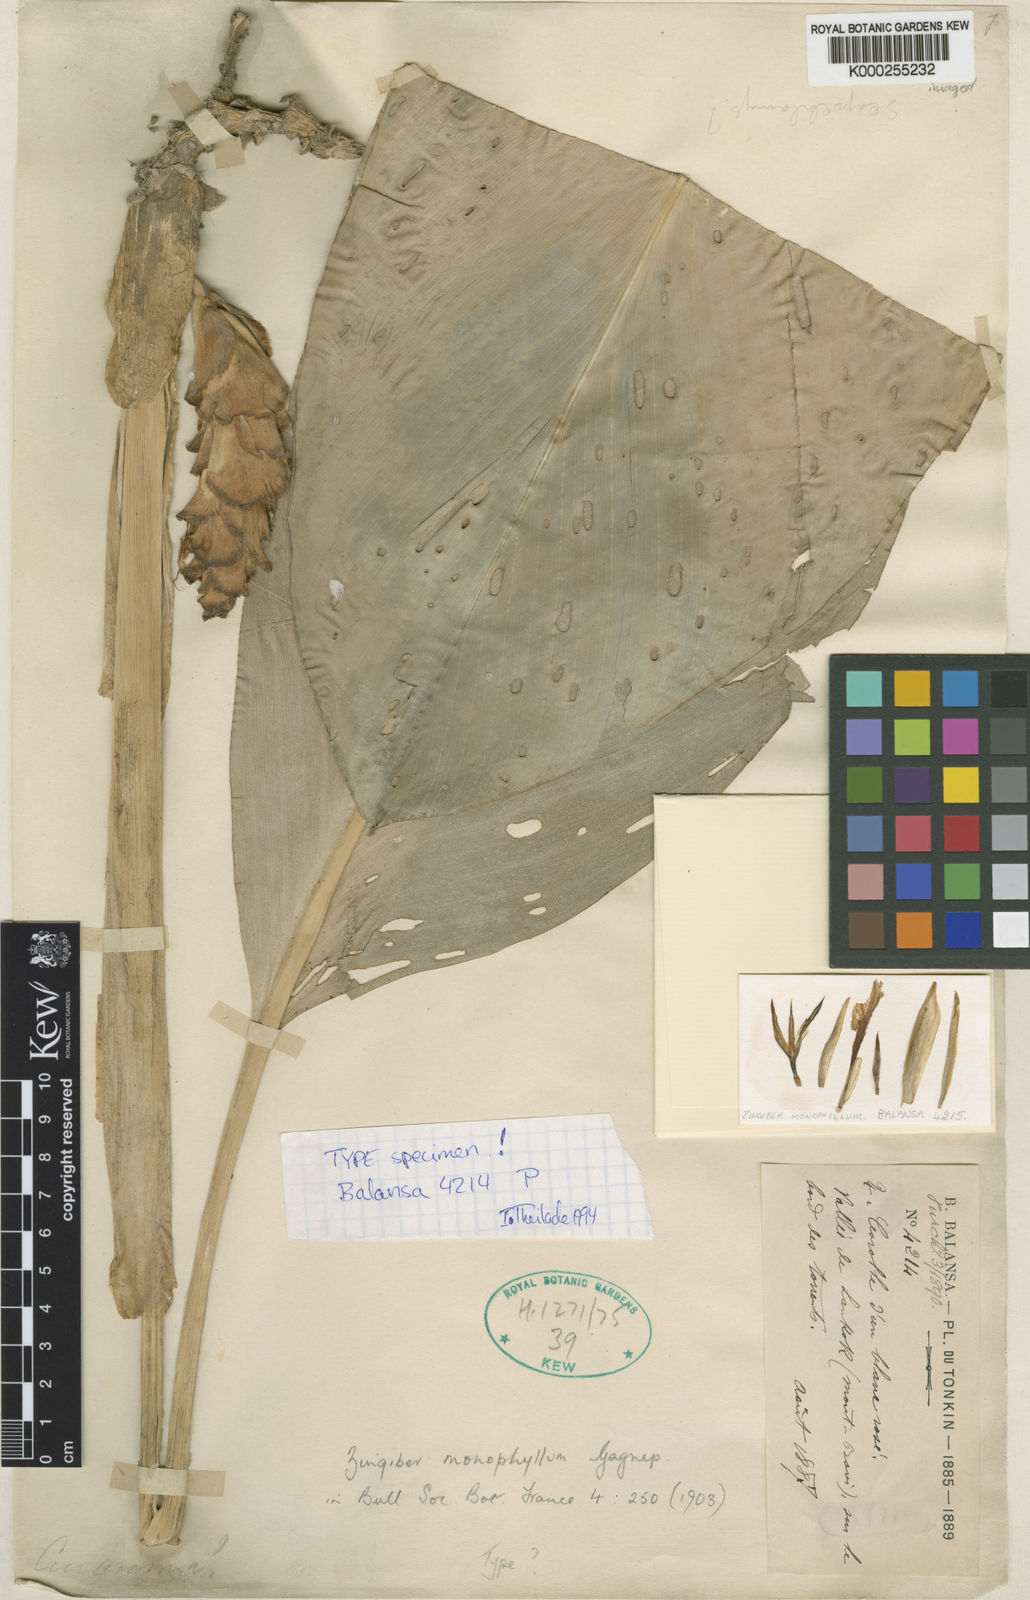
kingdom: Plantae
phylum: Tracheophyta
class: Liliopsida
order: Zingiberales
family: Zingiberaceae
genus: Zingiber
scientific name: Zingiber monophyllum
